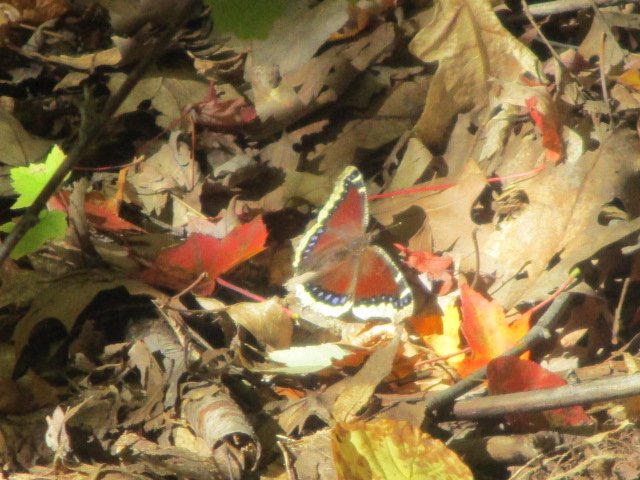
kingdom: Animalia
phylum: Arthropoda
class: Insecta
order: Lepidoptera
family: Nymphalidae
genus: Nymphalis
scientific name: Nymphalis antiopa
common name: Mourning Cloak
